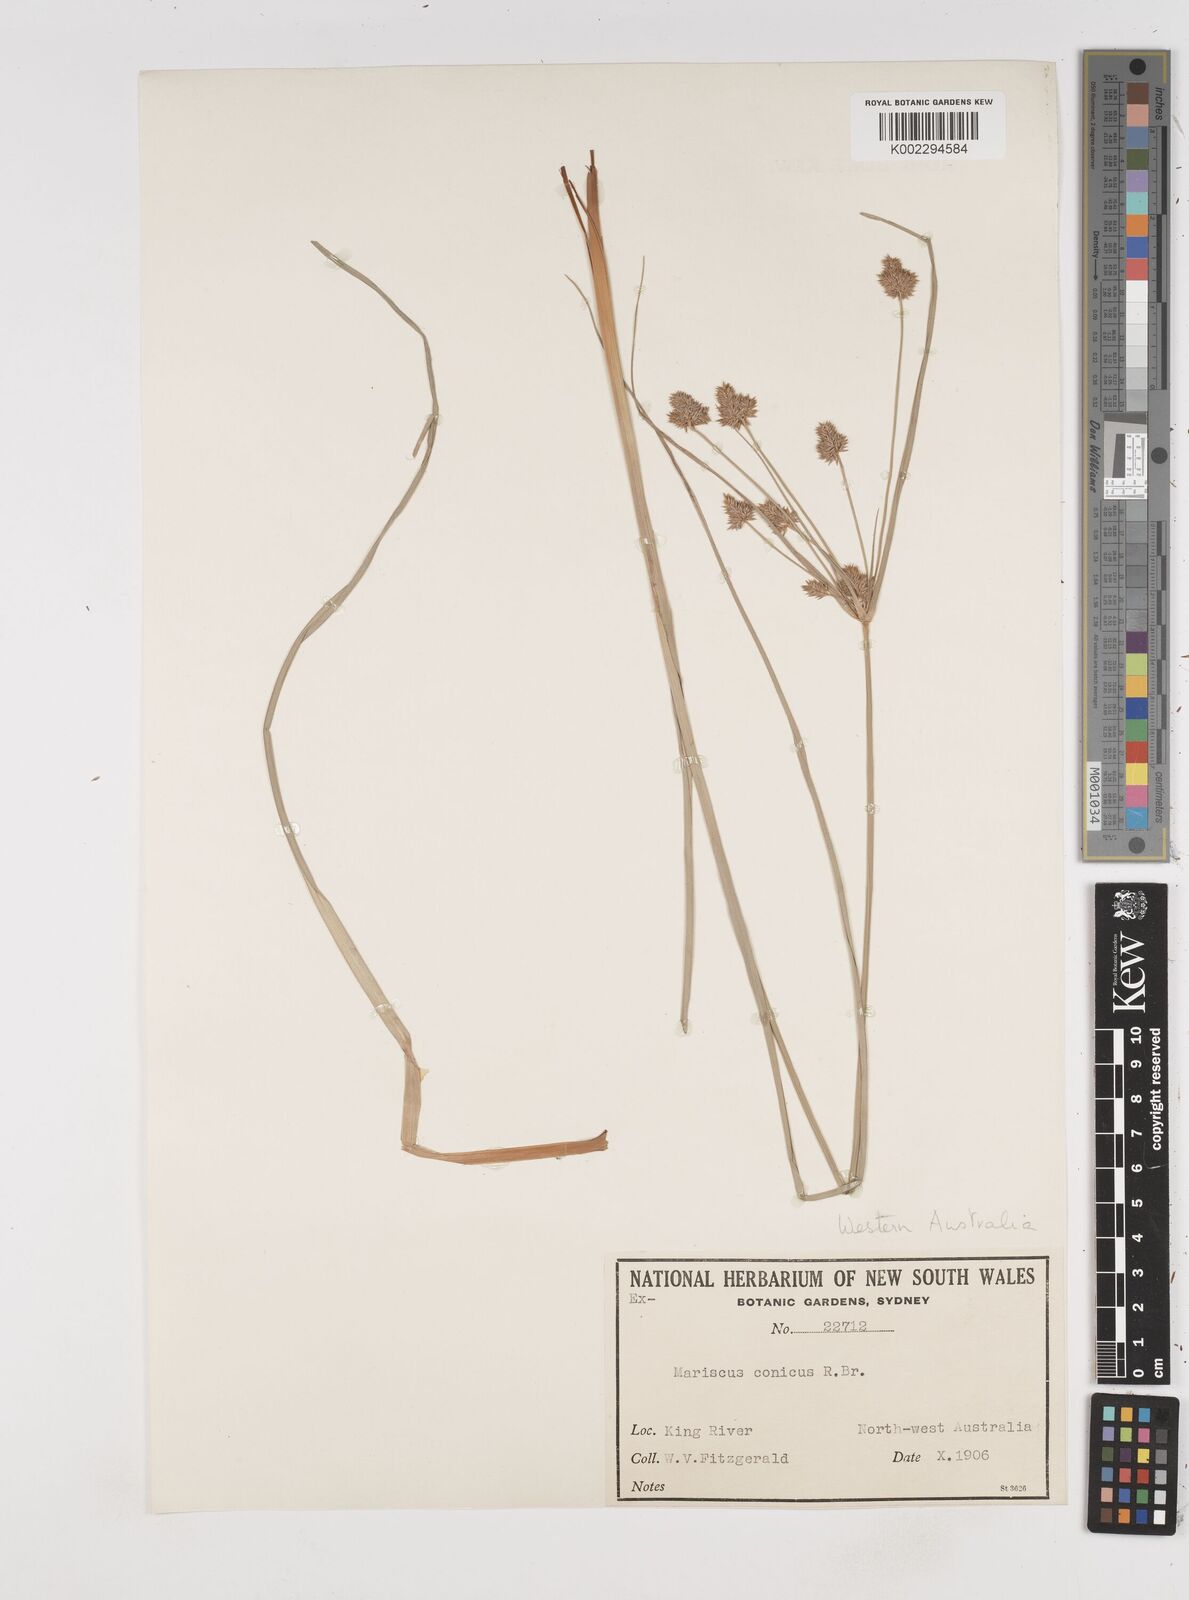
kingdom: Plantae
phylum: Tracheophyta
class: Liliopsida
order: Poales
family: Cyperaceae
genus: Cyperus
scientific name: Cyperus conicus
